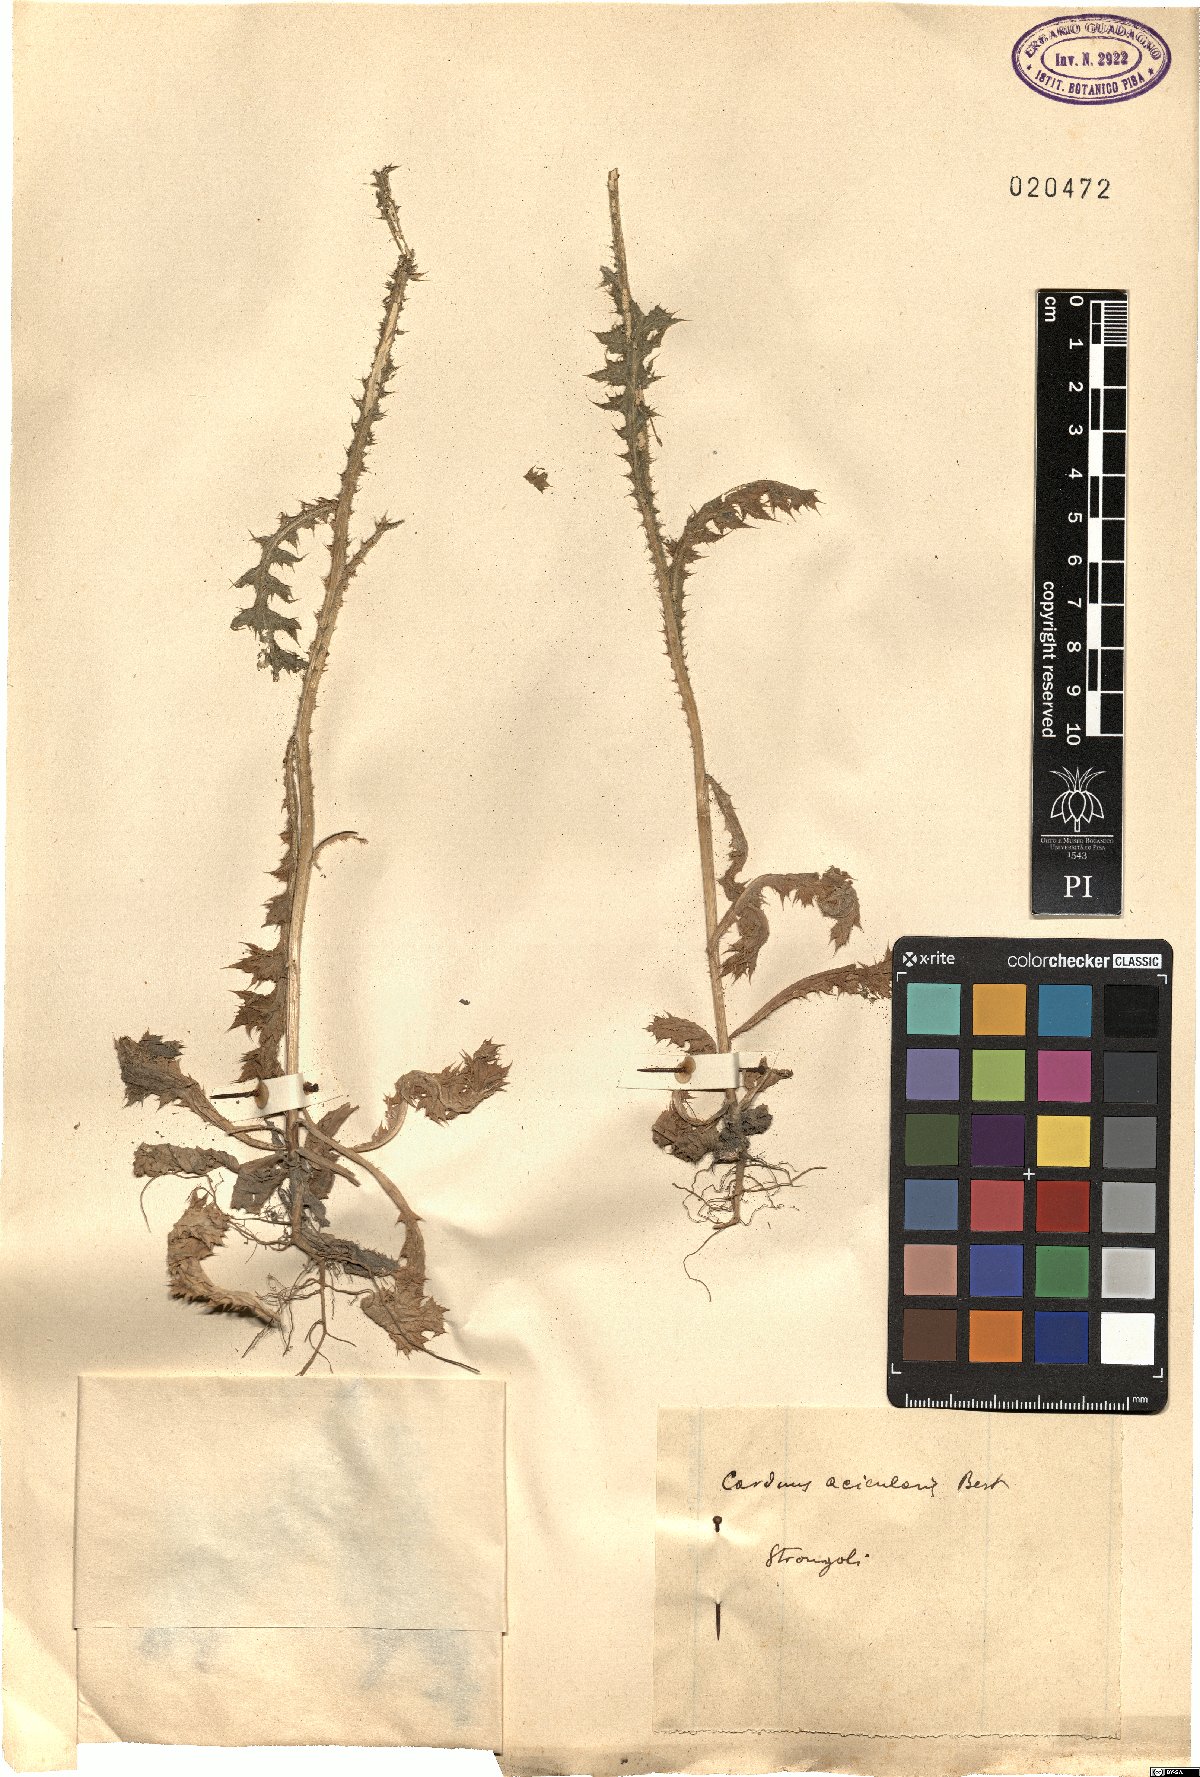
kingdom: Plantae
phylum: Tracheophyta
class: Magnoliopsida
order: Asterales
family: Asteraceae
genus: Carduus
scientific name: Carduus acicularis
